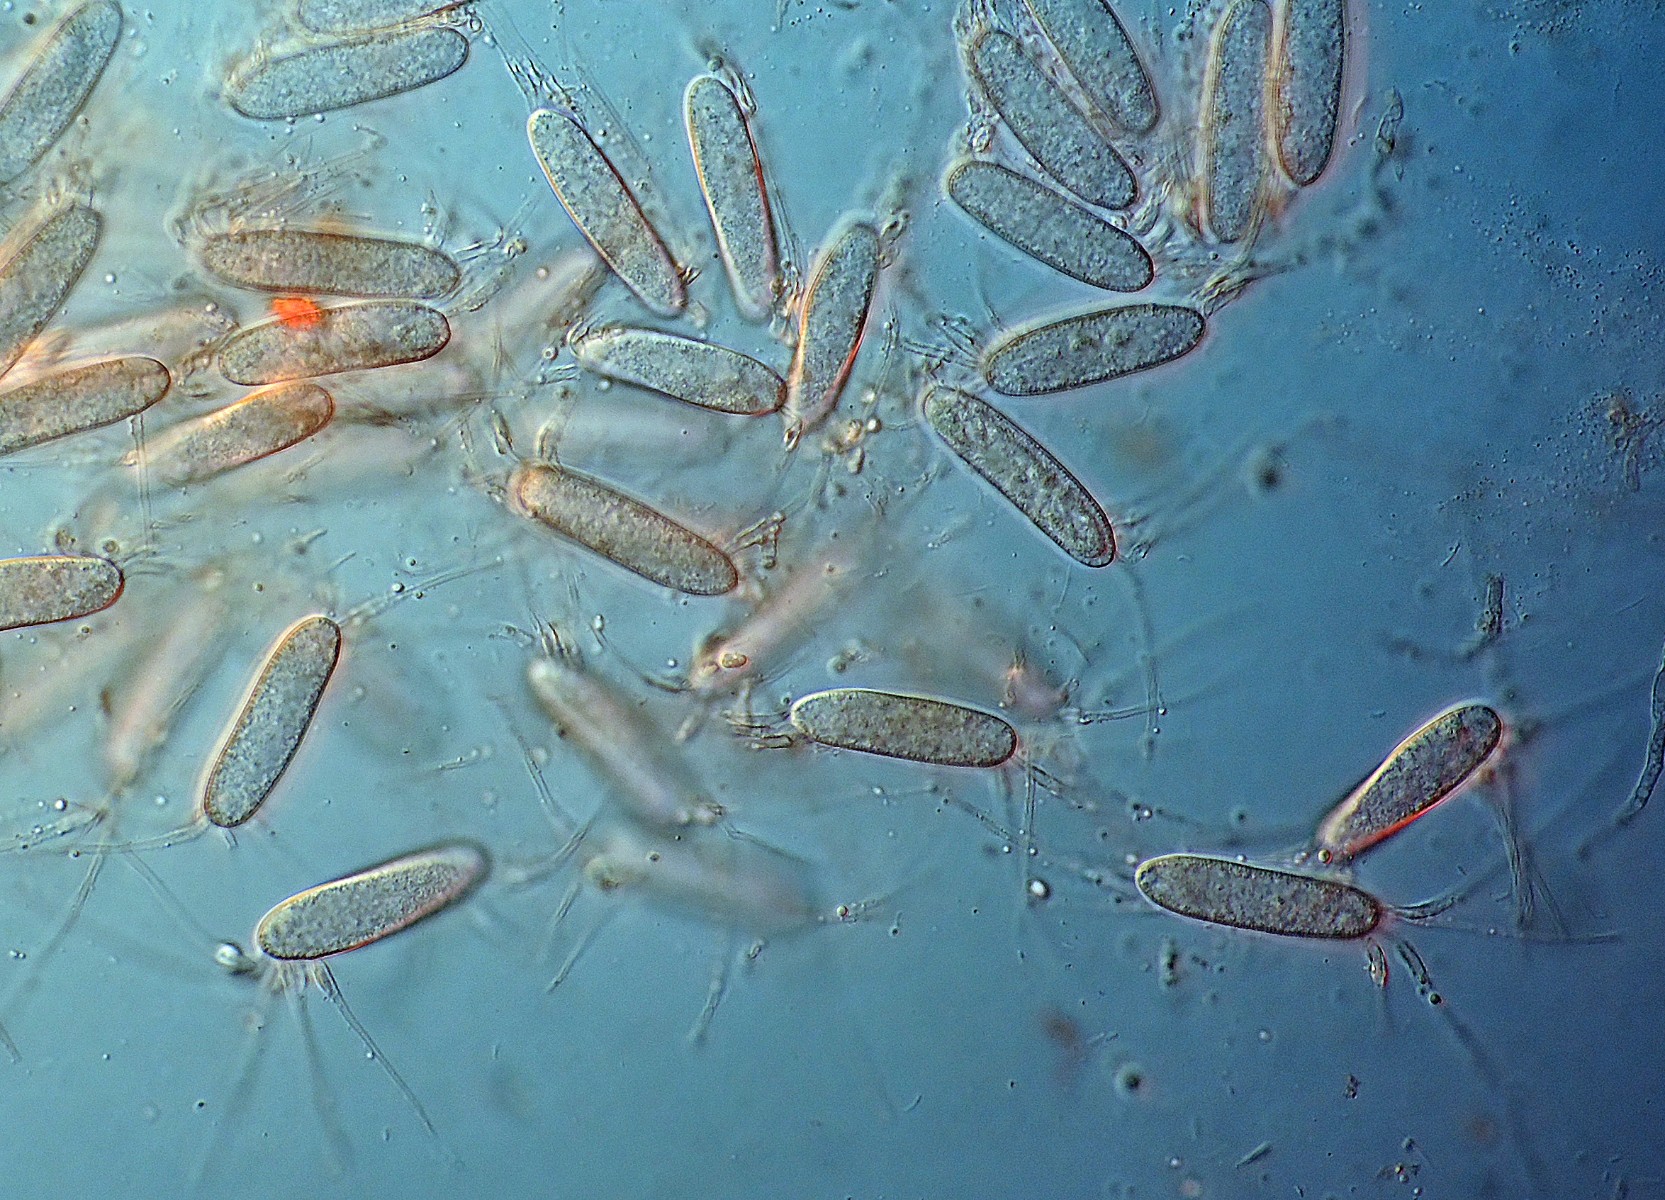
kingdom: Fungi
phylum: Basidiomycota
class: Agaricomycetes
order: Sebacinales
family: Sebacinaceae
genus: Chaetospermum
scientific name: Chaetospermum chaetosporum
